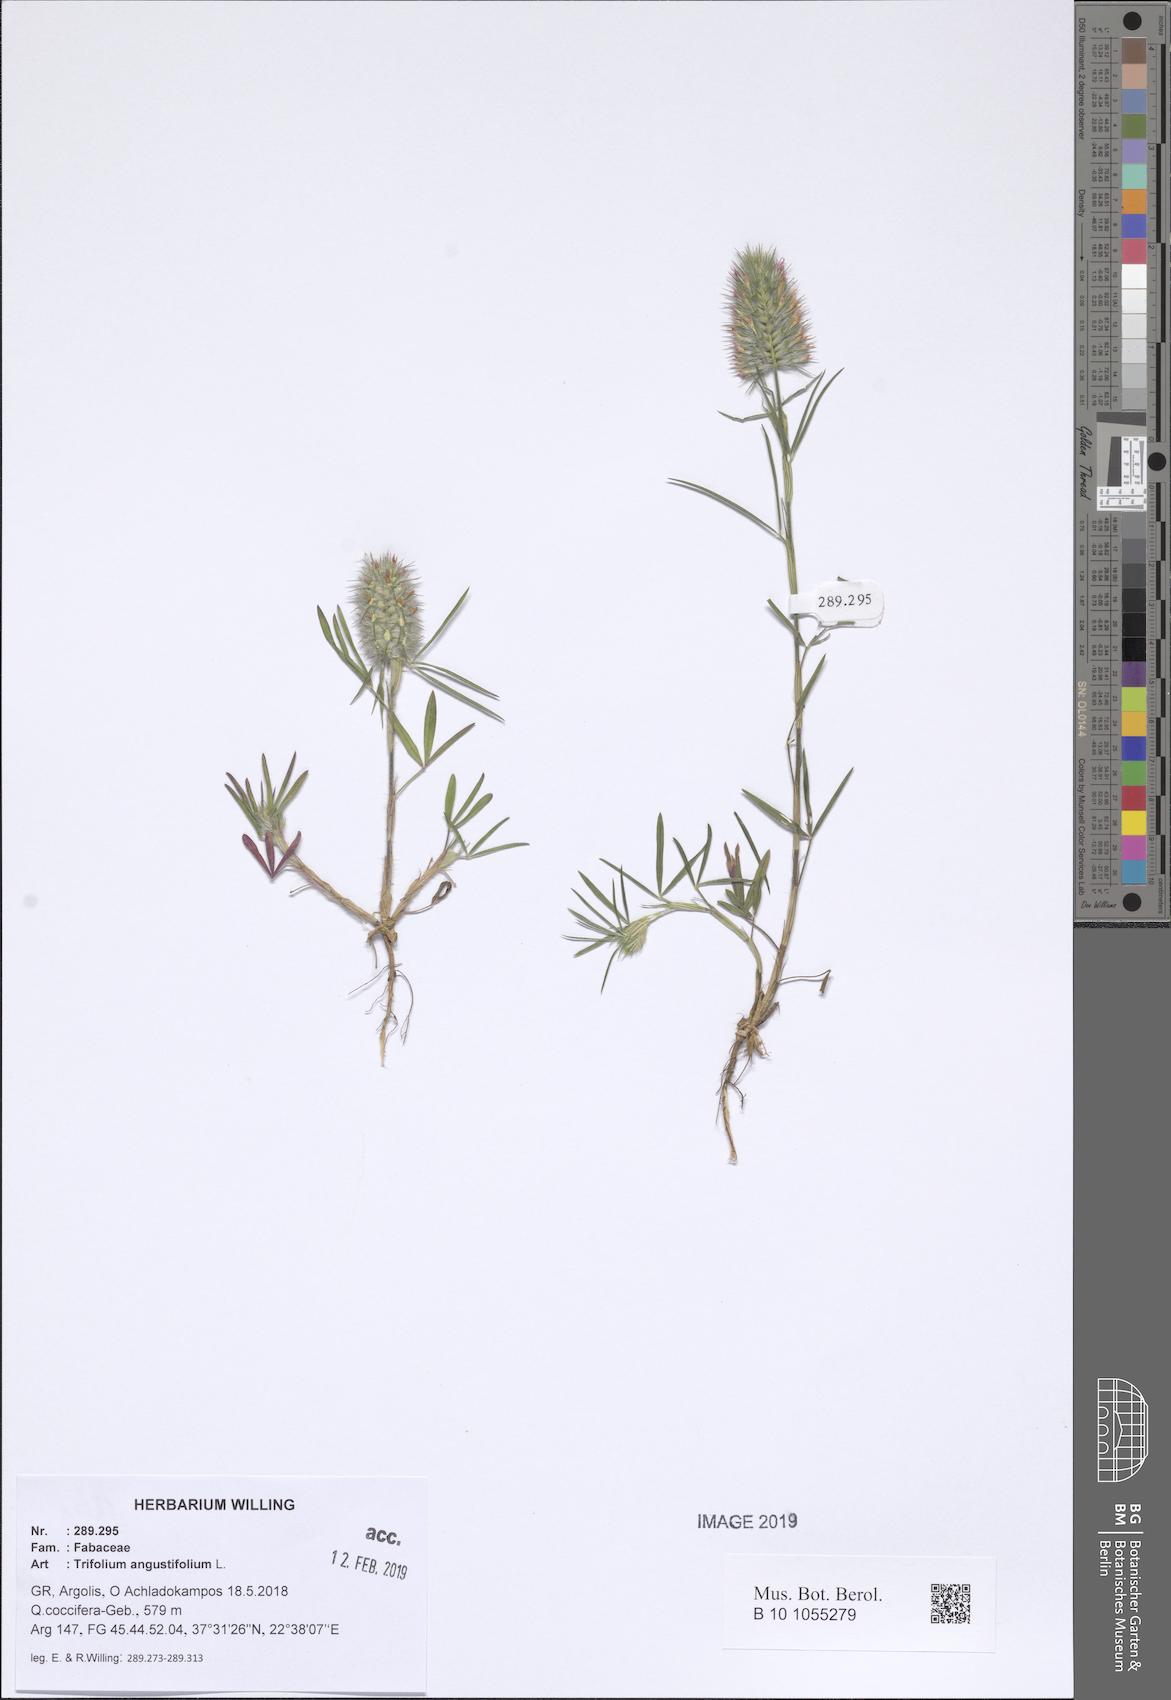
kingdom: Plantae
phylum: Tracheophyta
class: Magnoliopsida
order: Fabales
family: Fabaceae
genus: Trifolium
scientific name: Trifolium angustifolium
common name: Narrow clover
